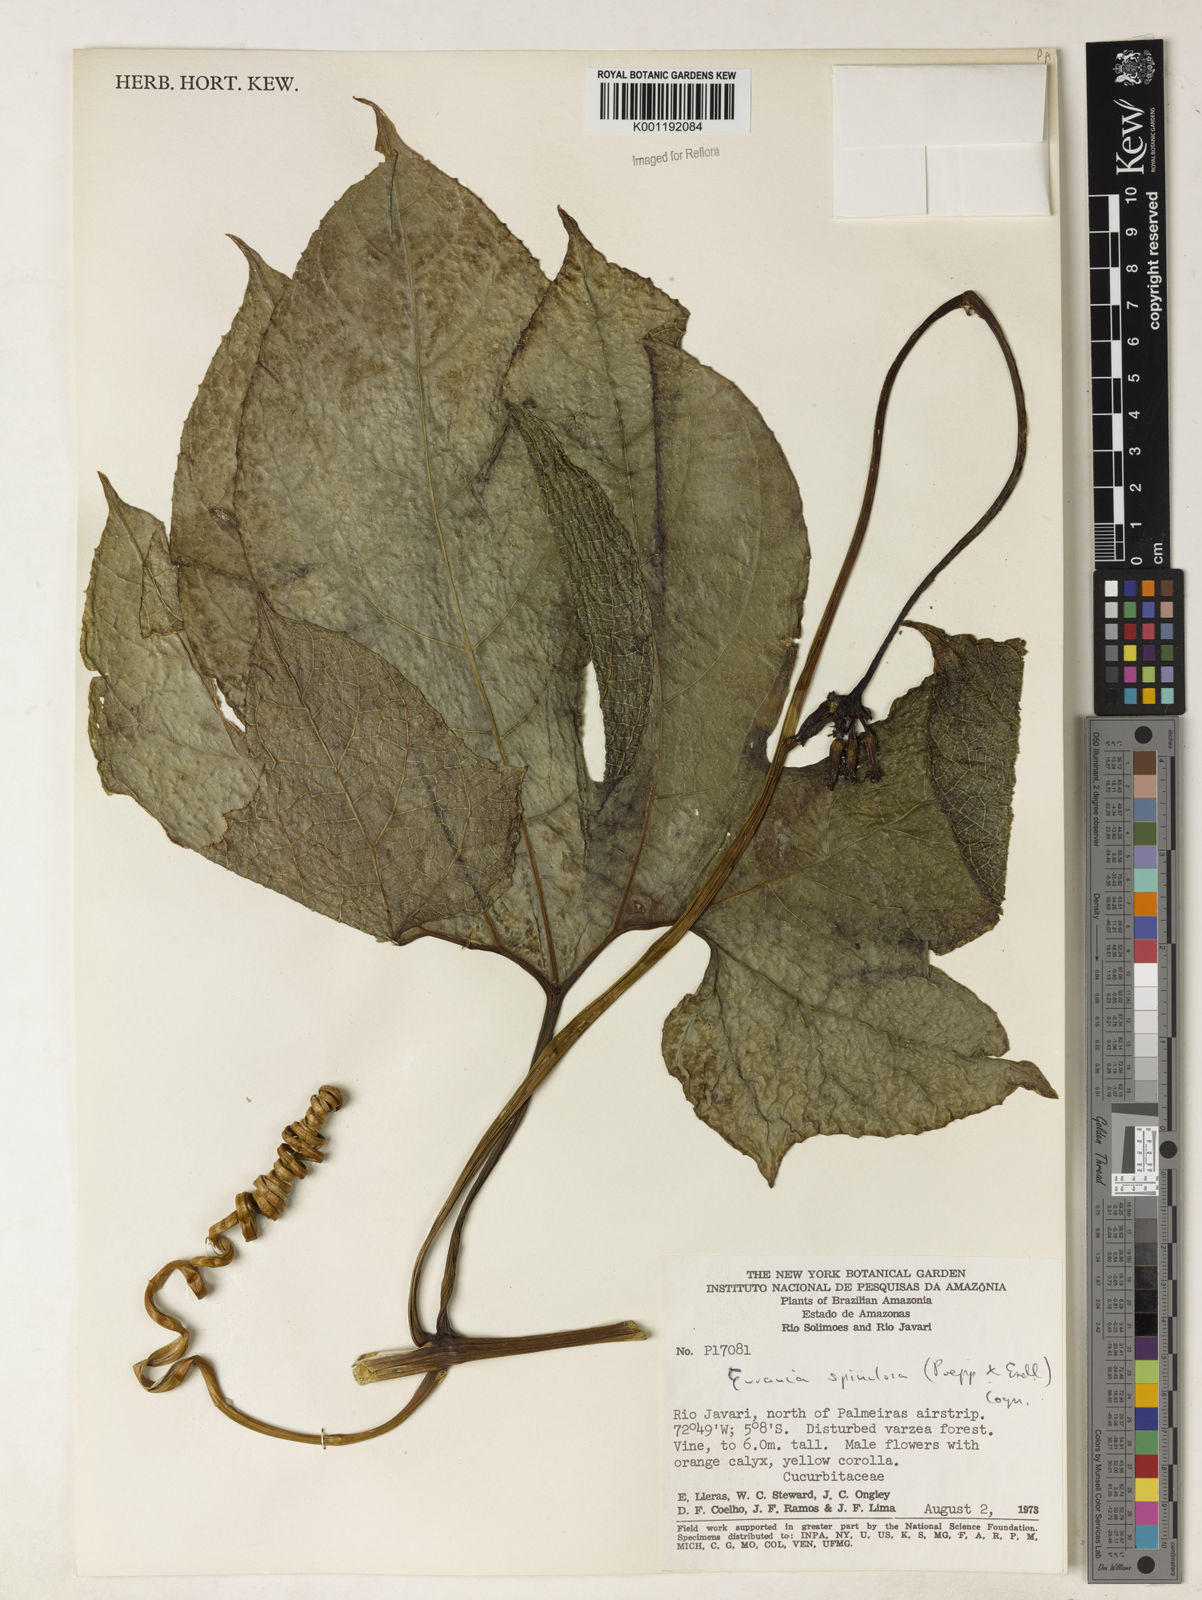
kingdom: Plantae
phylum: Tracheophyta
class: Magnoliopsida
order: Cucurbitales
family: Cucurbitaceae
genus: Gurania
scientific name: Gurania lobata
